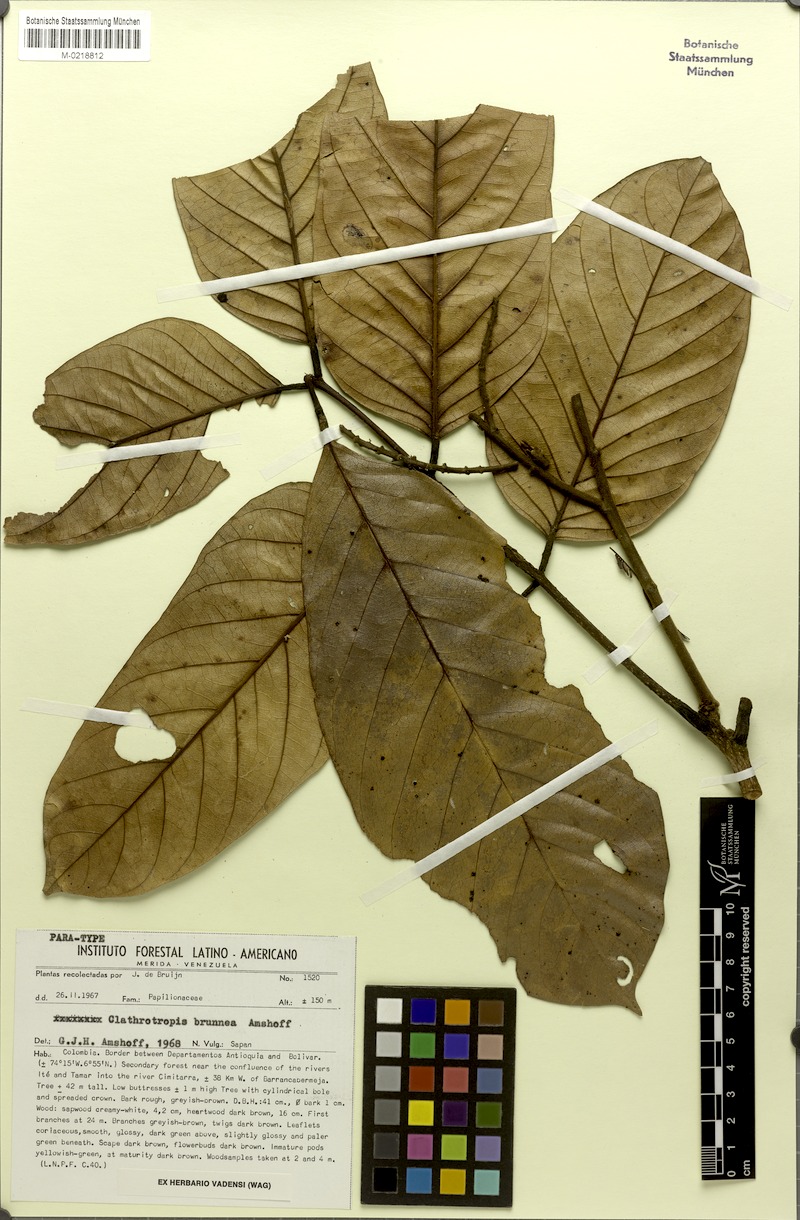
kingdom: Plantae
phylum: Tracheophyta
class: Magnoliopsida
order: Fabales
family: Fabaceae
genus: Clathrotropis
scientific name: Clathrotropis brunnea
